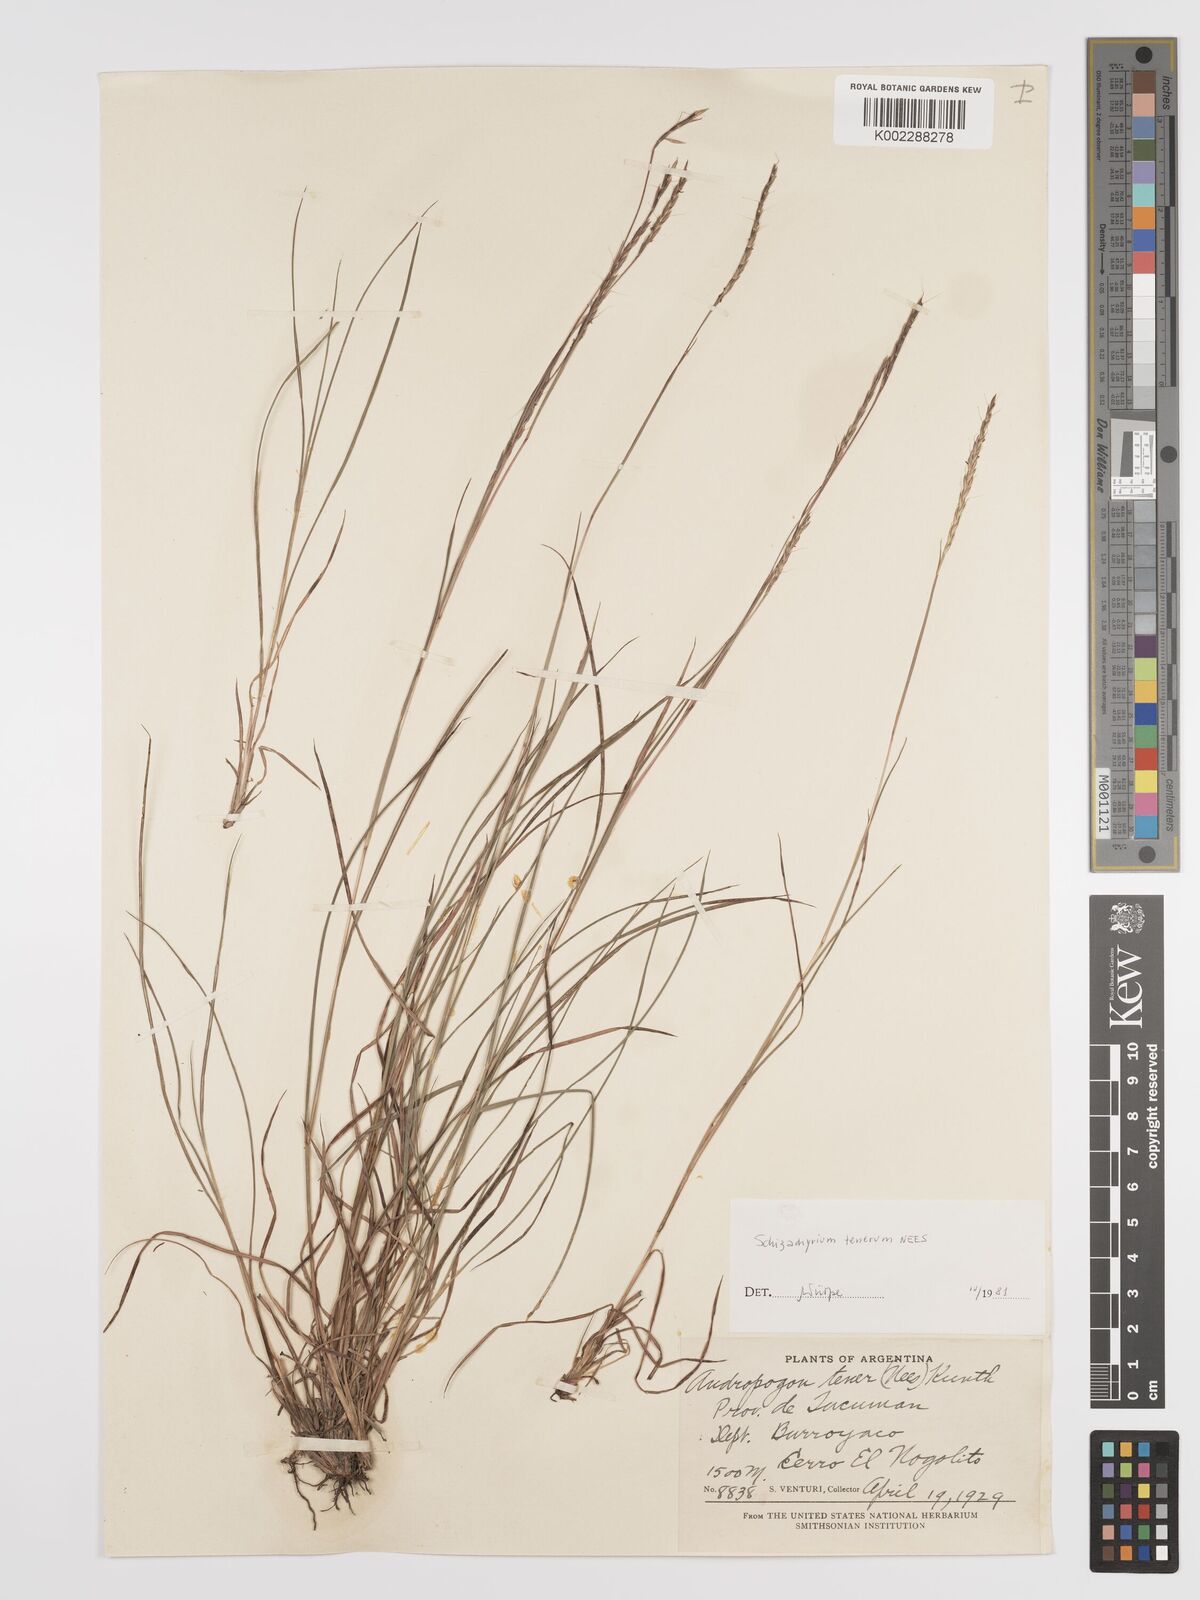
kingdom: Plantae
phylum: Tracheophyta
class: Liliopsida
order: Poales
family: Poaceae
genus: Andropogon
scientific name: Andropogon tener
